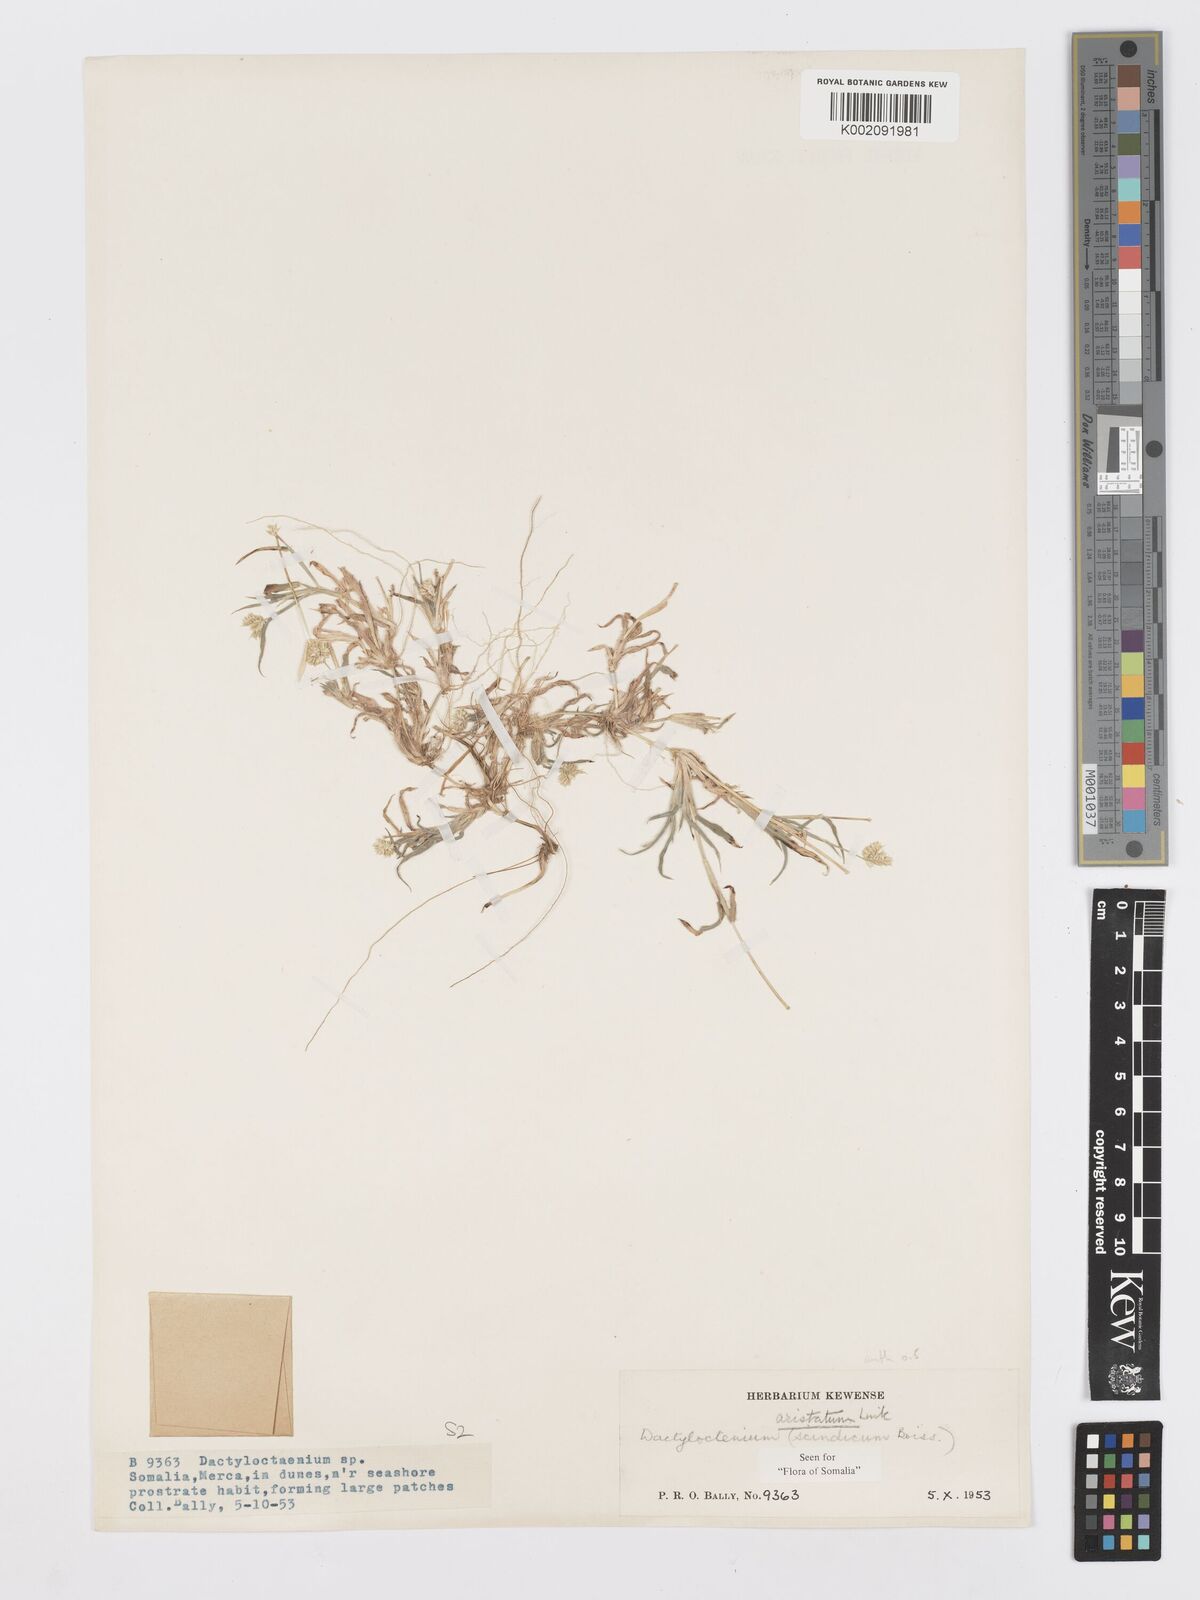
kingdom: Plantae
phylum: Tracheophyta
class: Liliopsida
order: Poales
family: Poaceae
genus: Dactyloctenium
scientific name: Dactyloctenium aristatum
